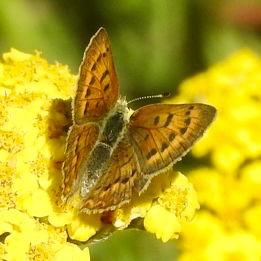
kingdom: Animalia
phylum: Arthropoda
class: Insecta
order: Lepidoptera
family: Lycaenidae
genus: Epidemia
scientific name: Epidemia dorcas
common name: Dorcas Copper
